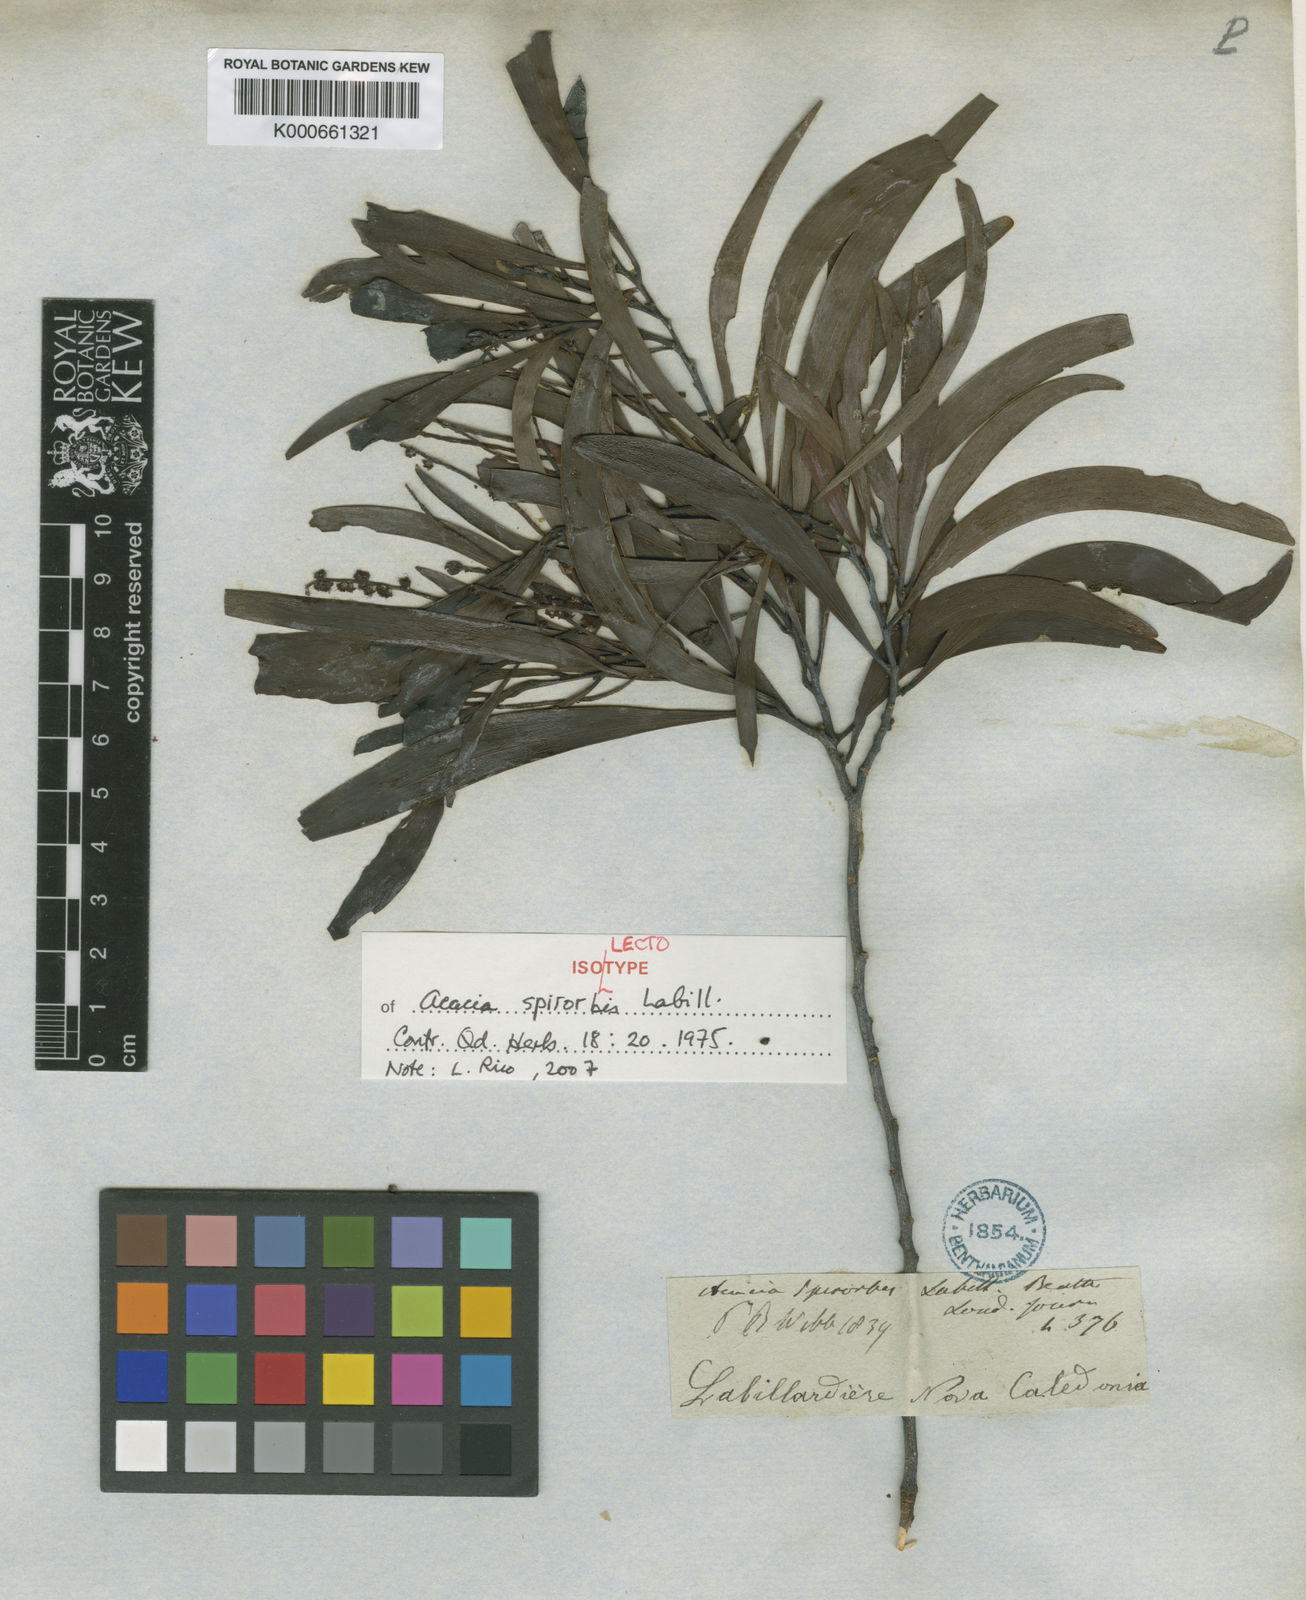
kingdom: Plantae
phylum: Tracheophyta
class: Magnoliopsida
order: Fabales
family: Fabaceae
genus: Acacia
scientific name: Acacia spirorbis
